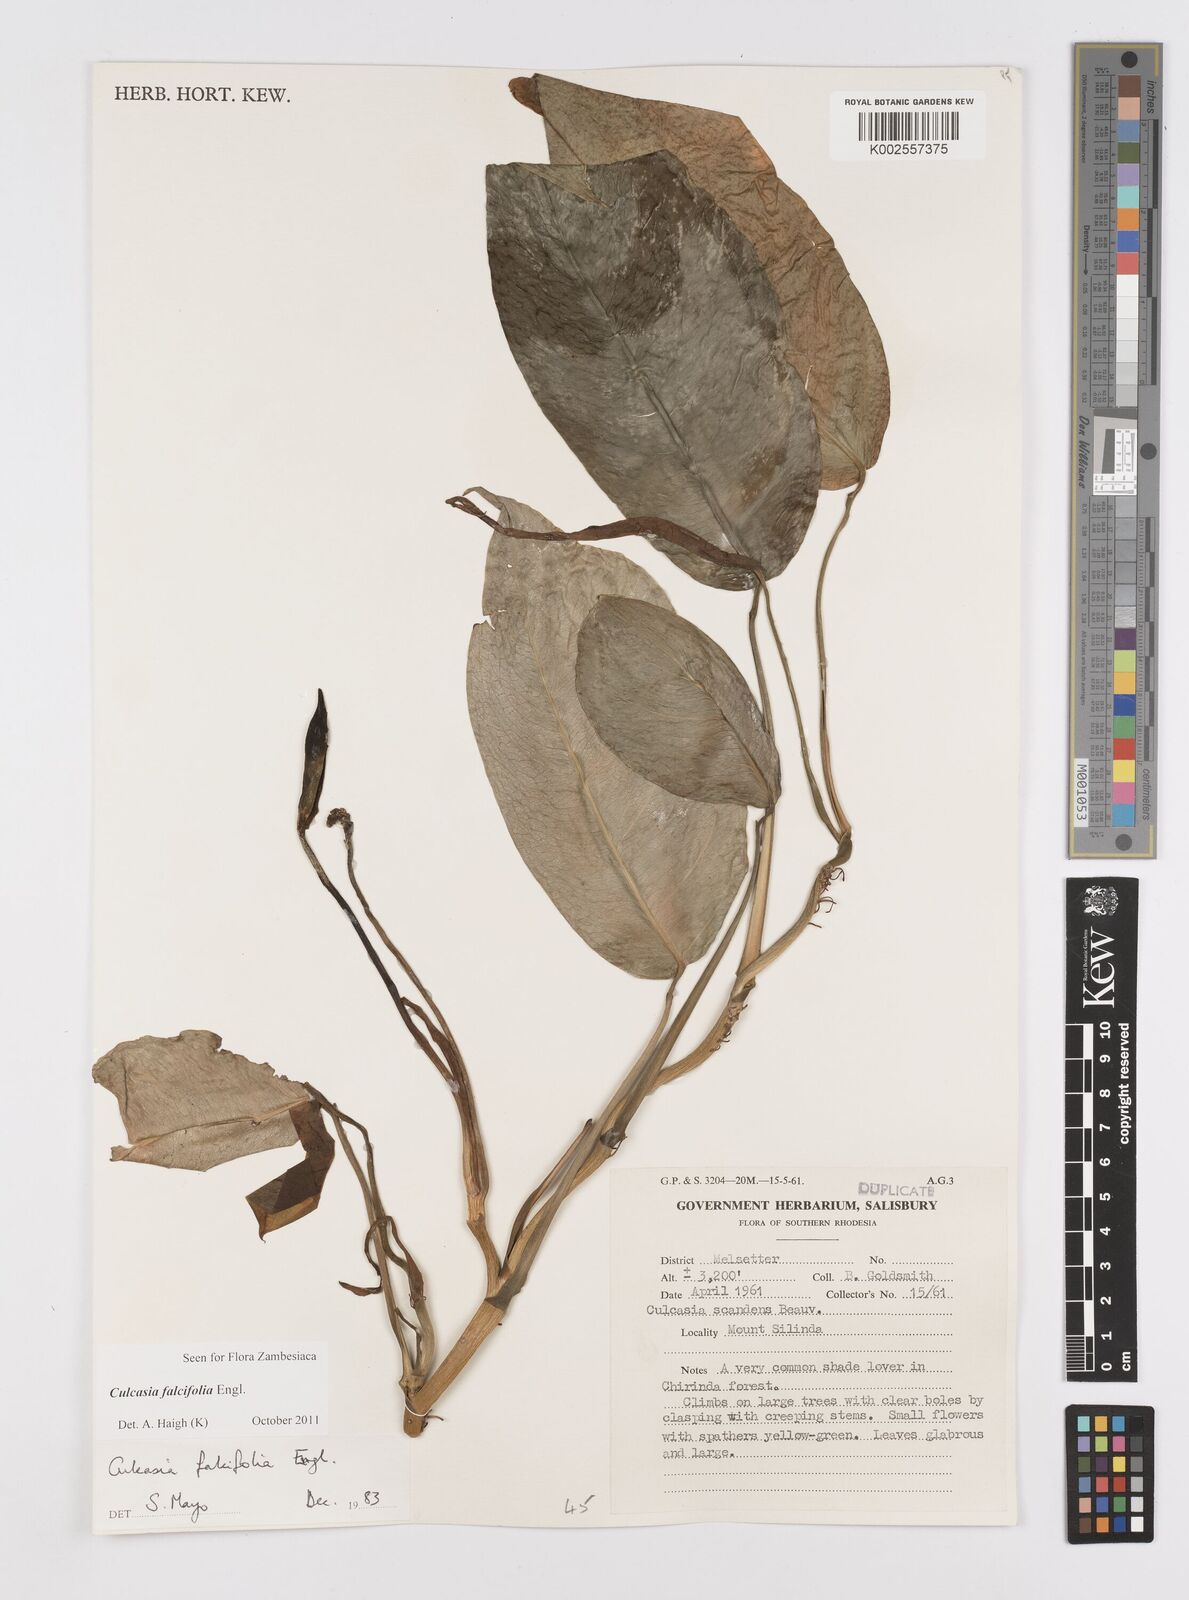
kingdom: Plantae
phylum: Tracheophyta
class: Liliopsida
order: Alismatales
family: Araceae
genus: Culcasia
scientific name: Culcasia falcifolia
